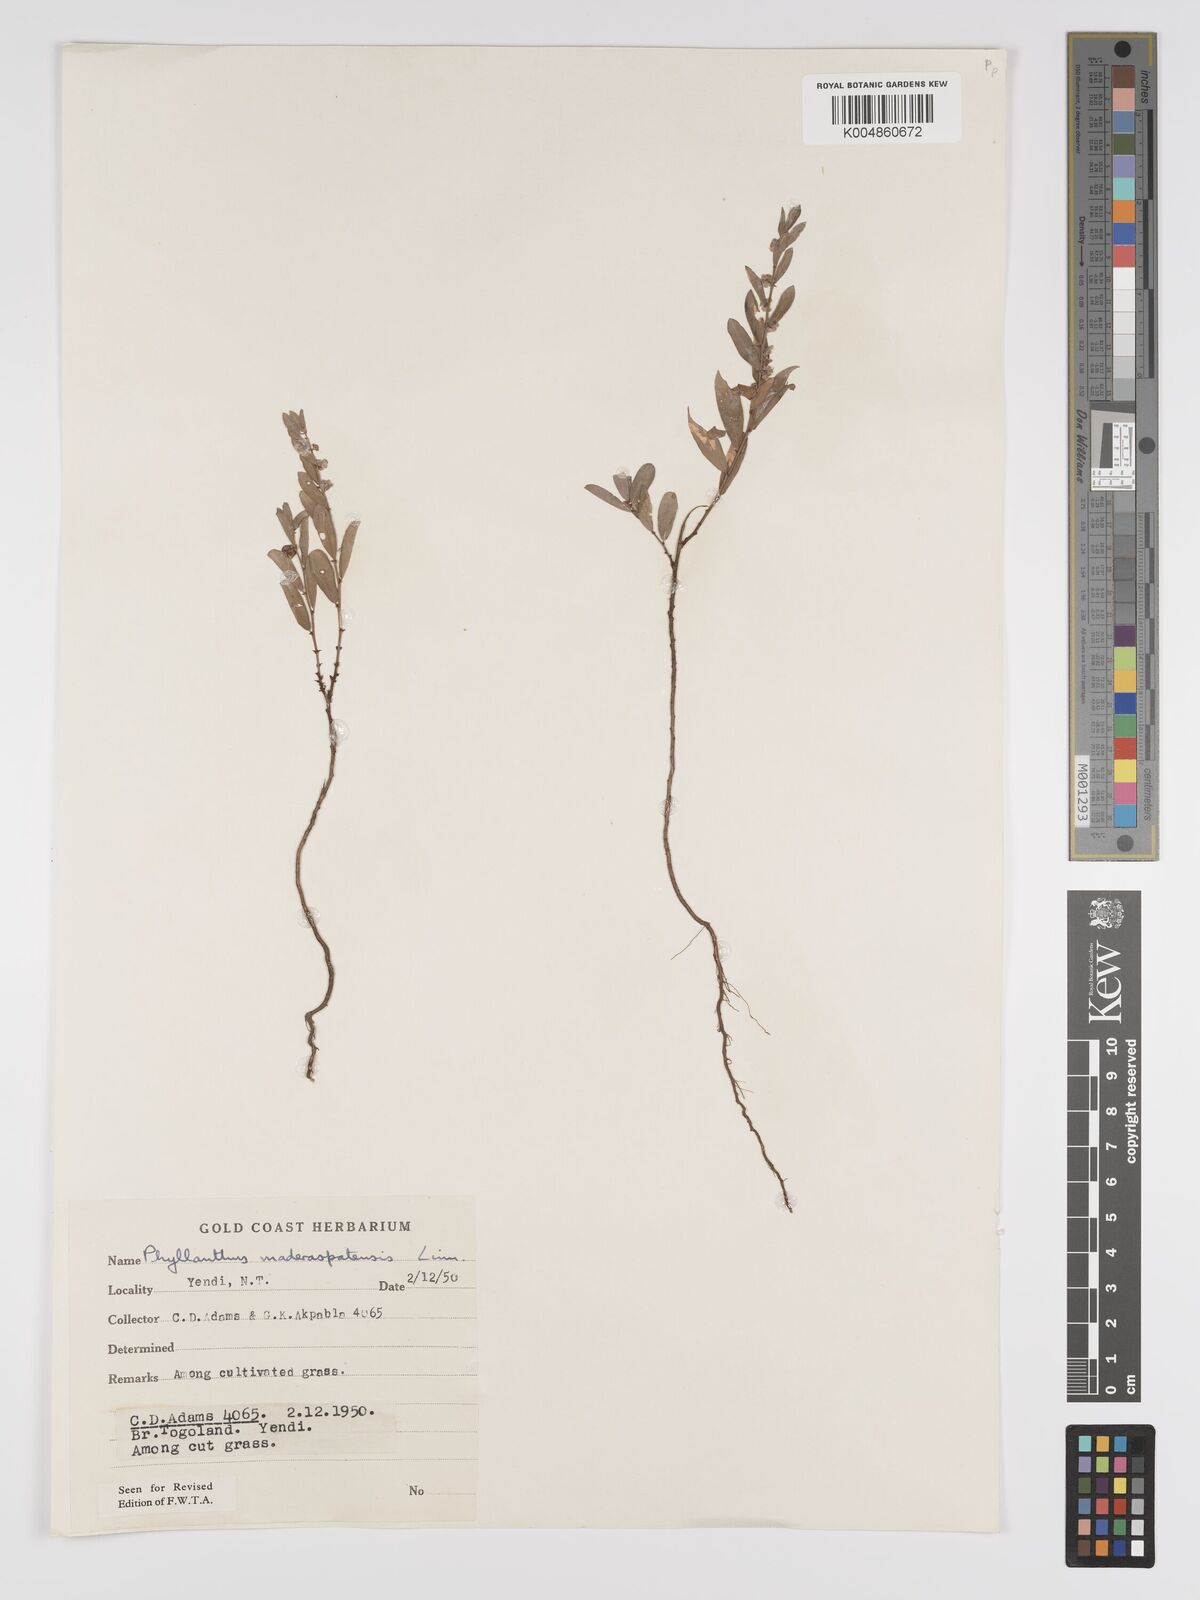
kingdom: Plantae
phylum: Tracheophyta
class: Magnoliopsida
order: Malpighiales
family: Phyllanthaceae
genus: Phyllanthus
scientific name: Phyllanthus
